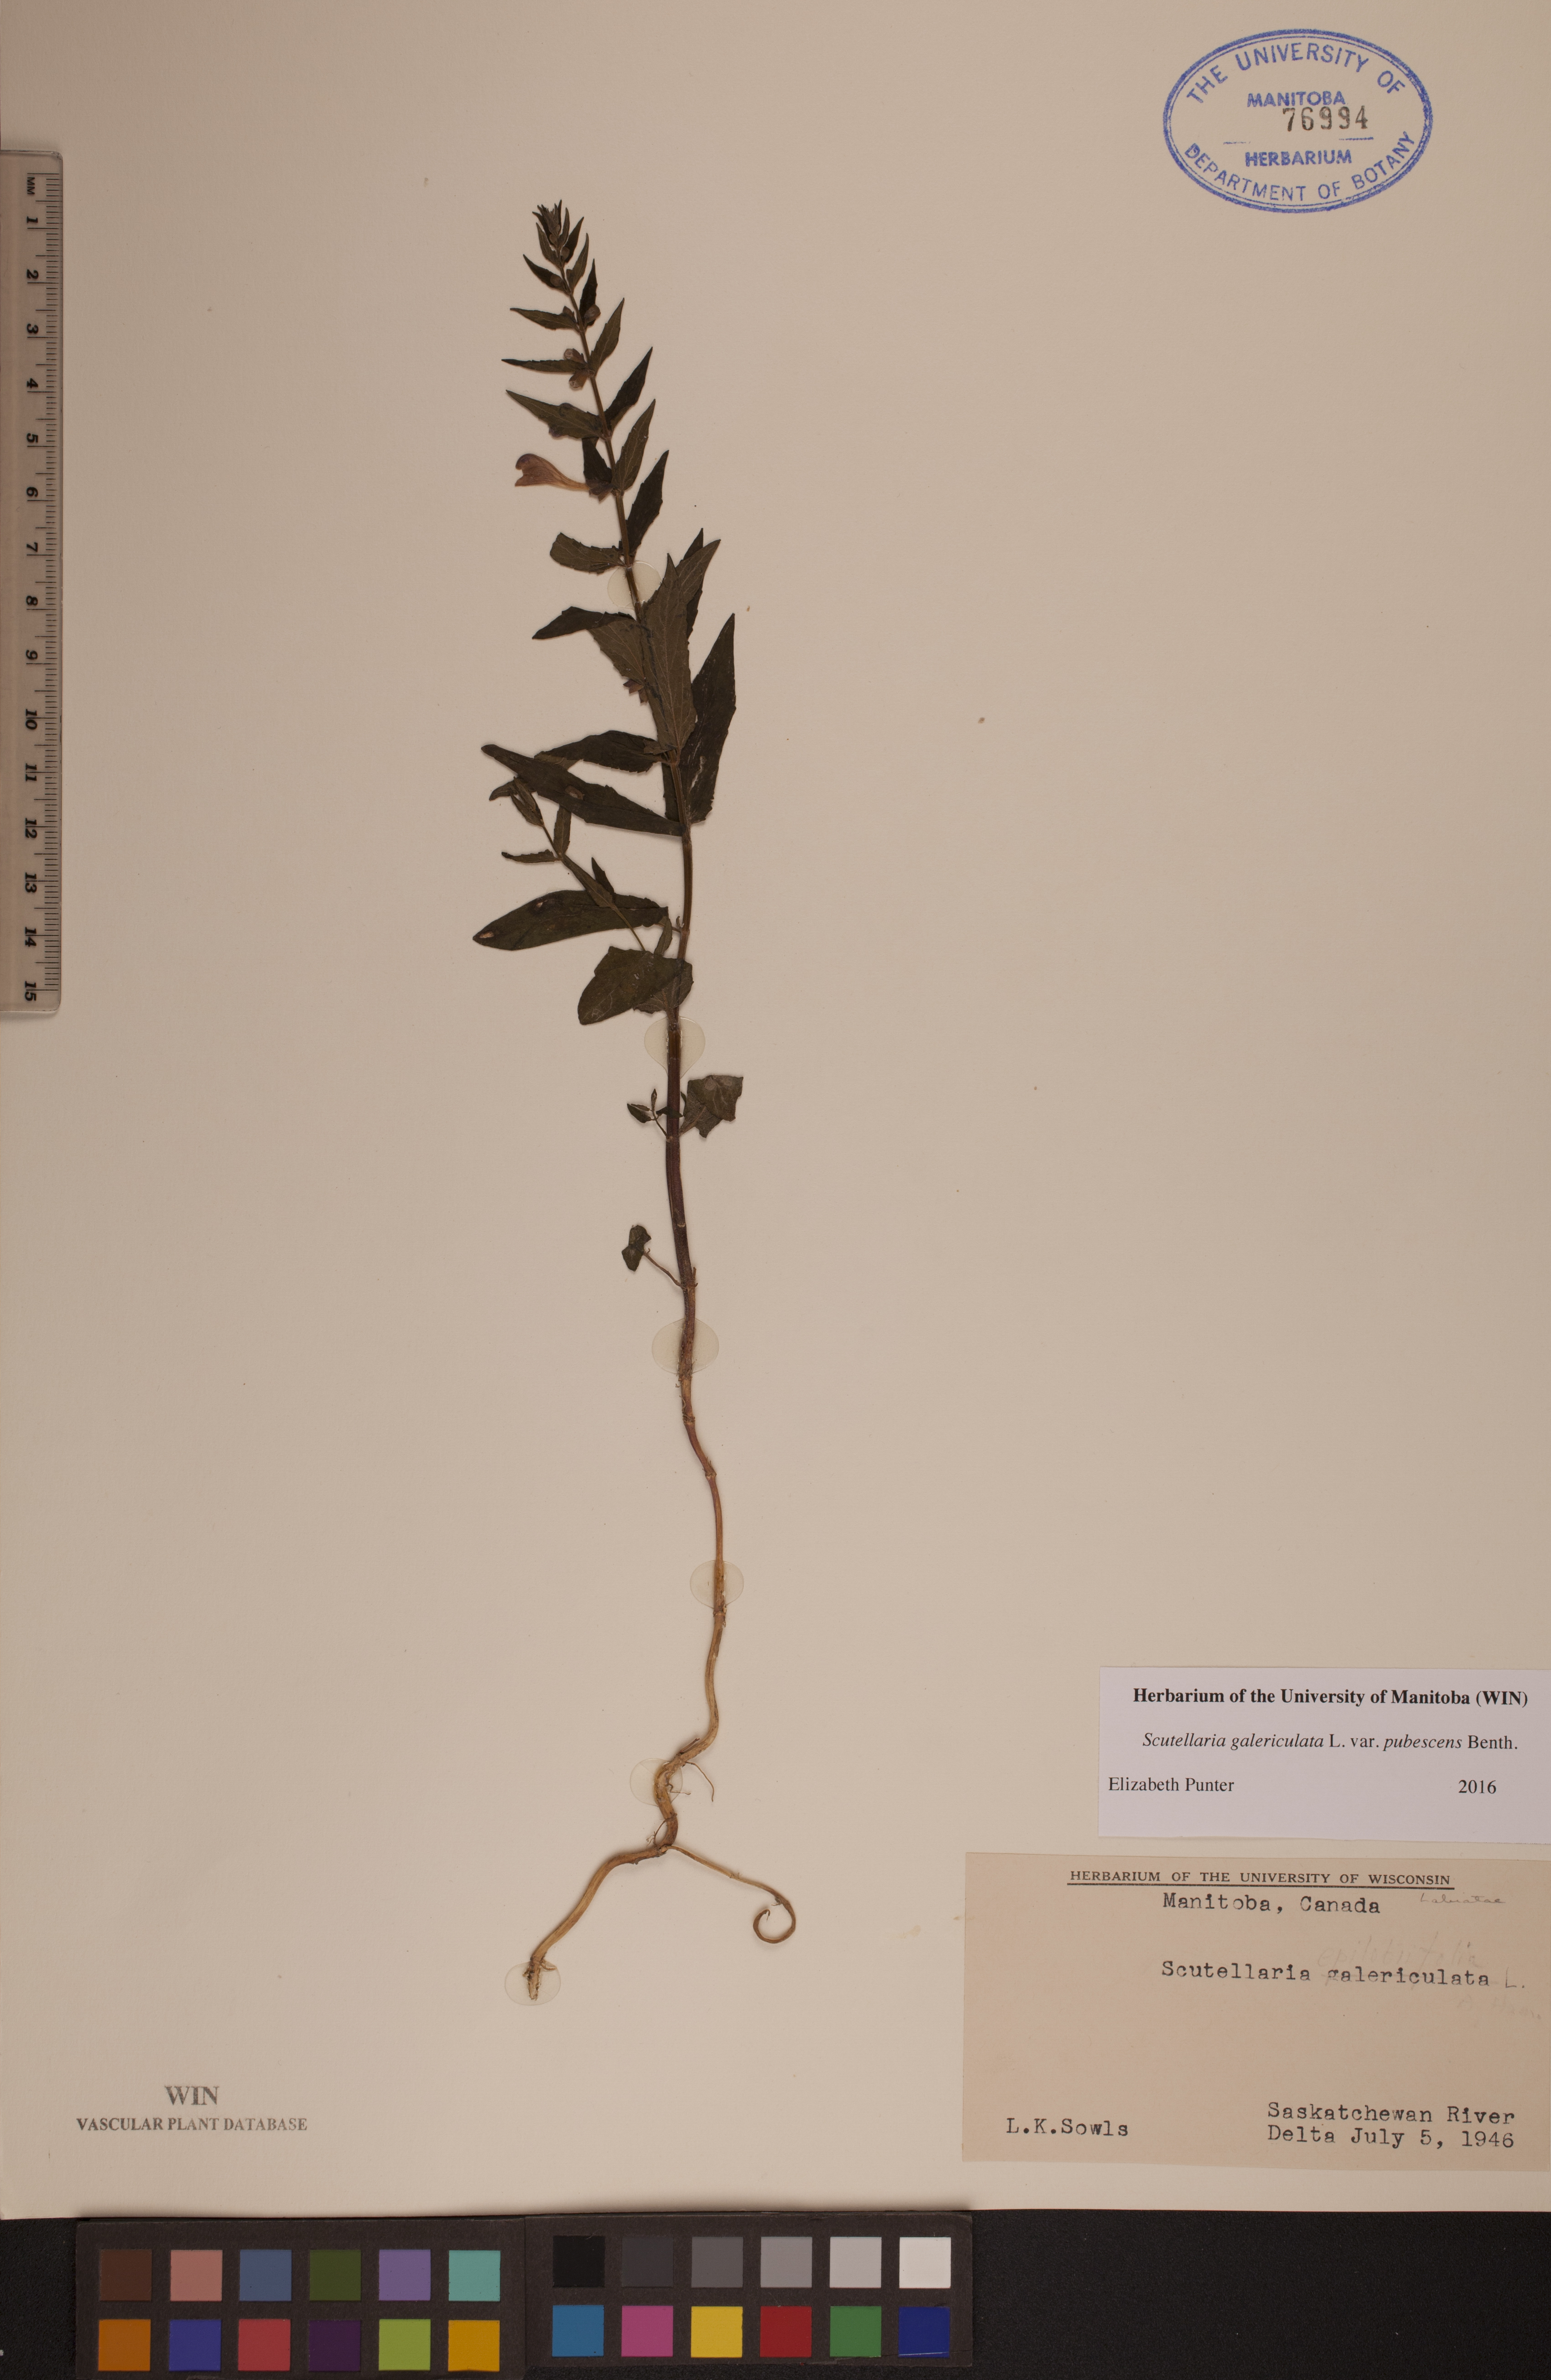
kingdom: Plantae
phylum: Tracheophyta
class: Magnoliopsida
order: Lamiales
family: Lamiaceae
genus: Scutellaria
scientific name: Scutellaria nicholsonii
